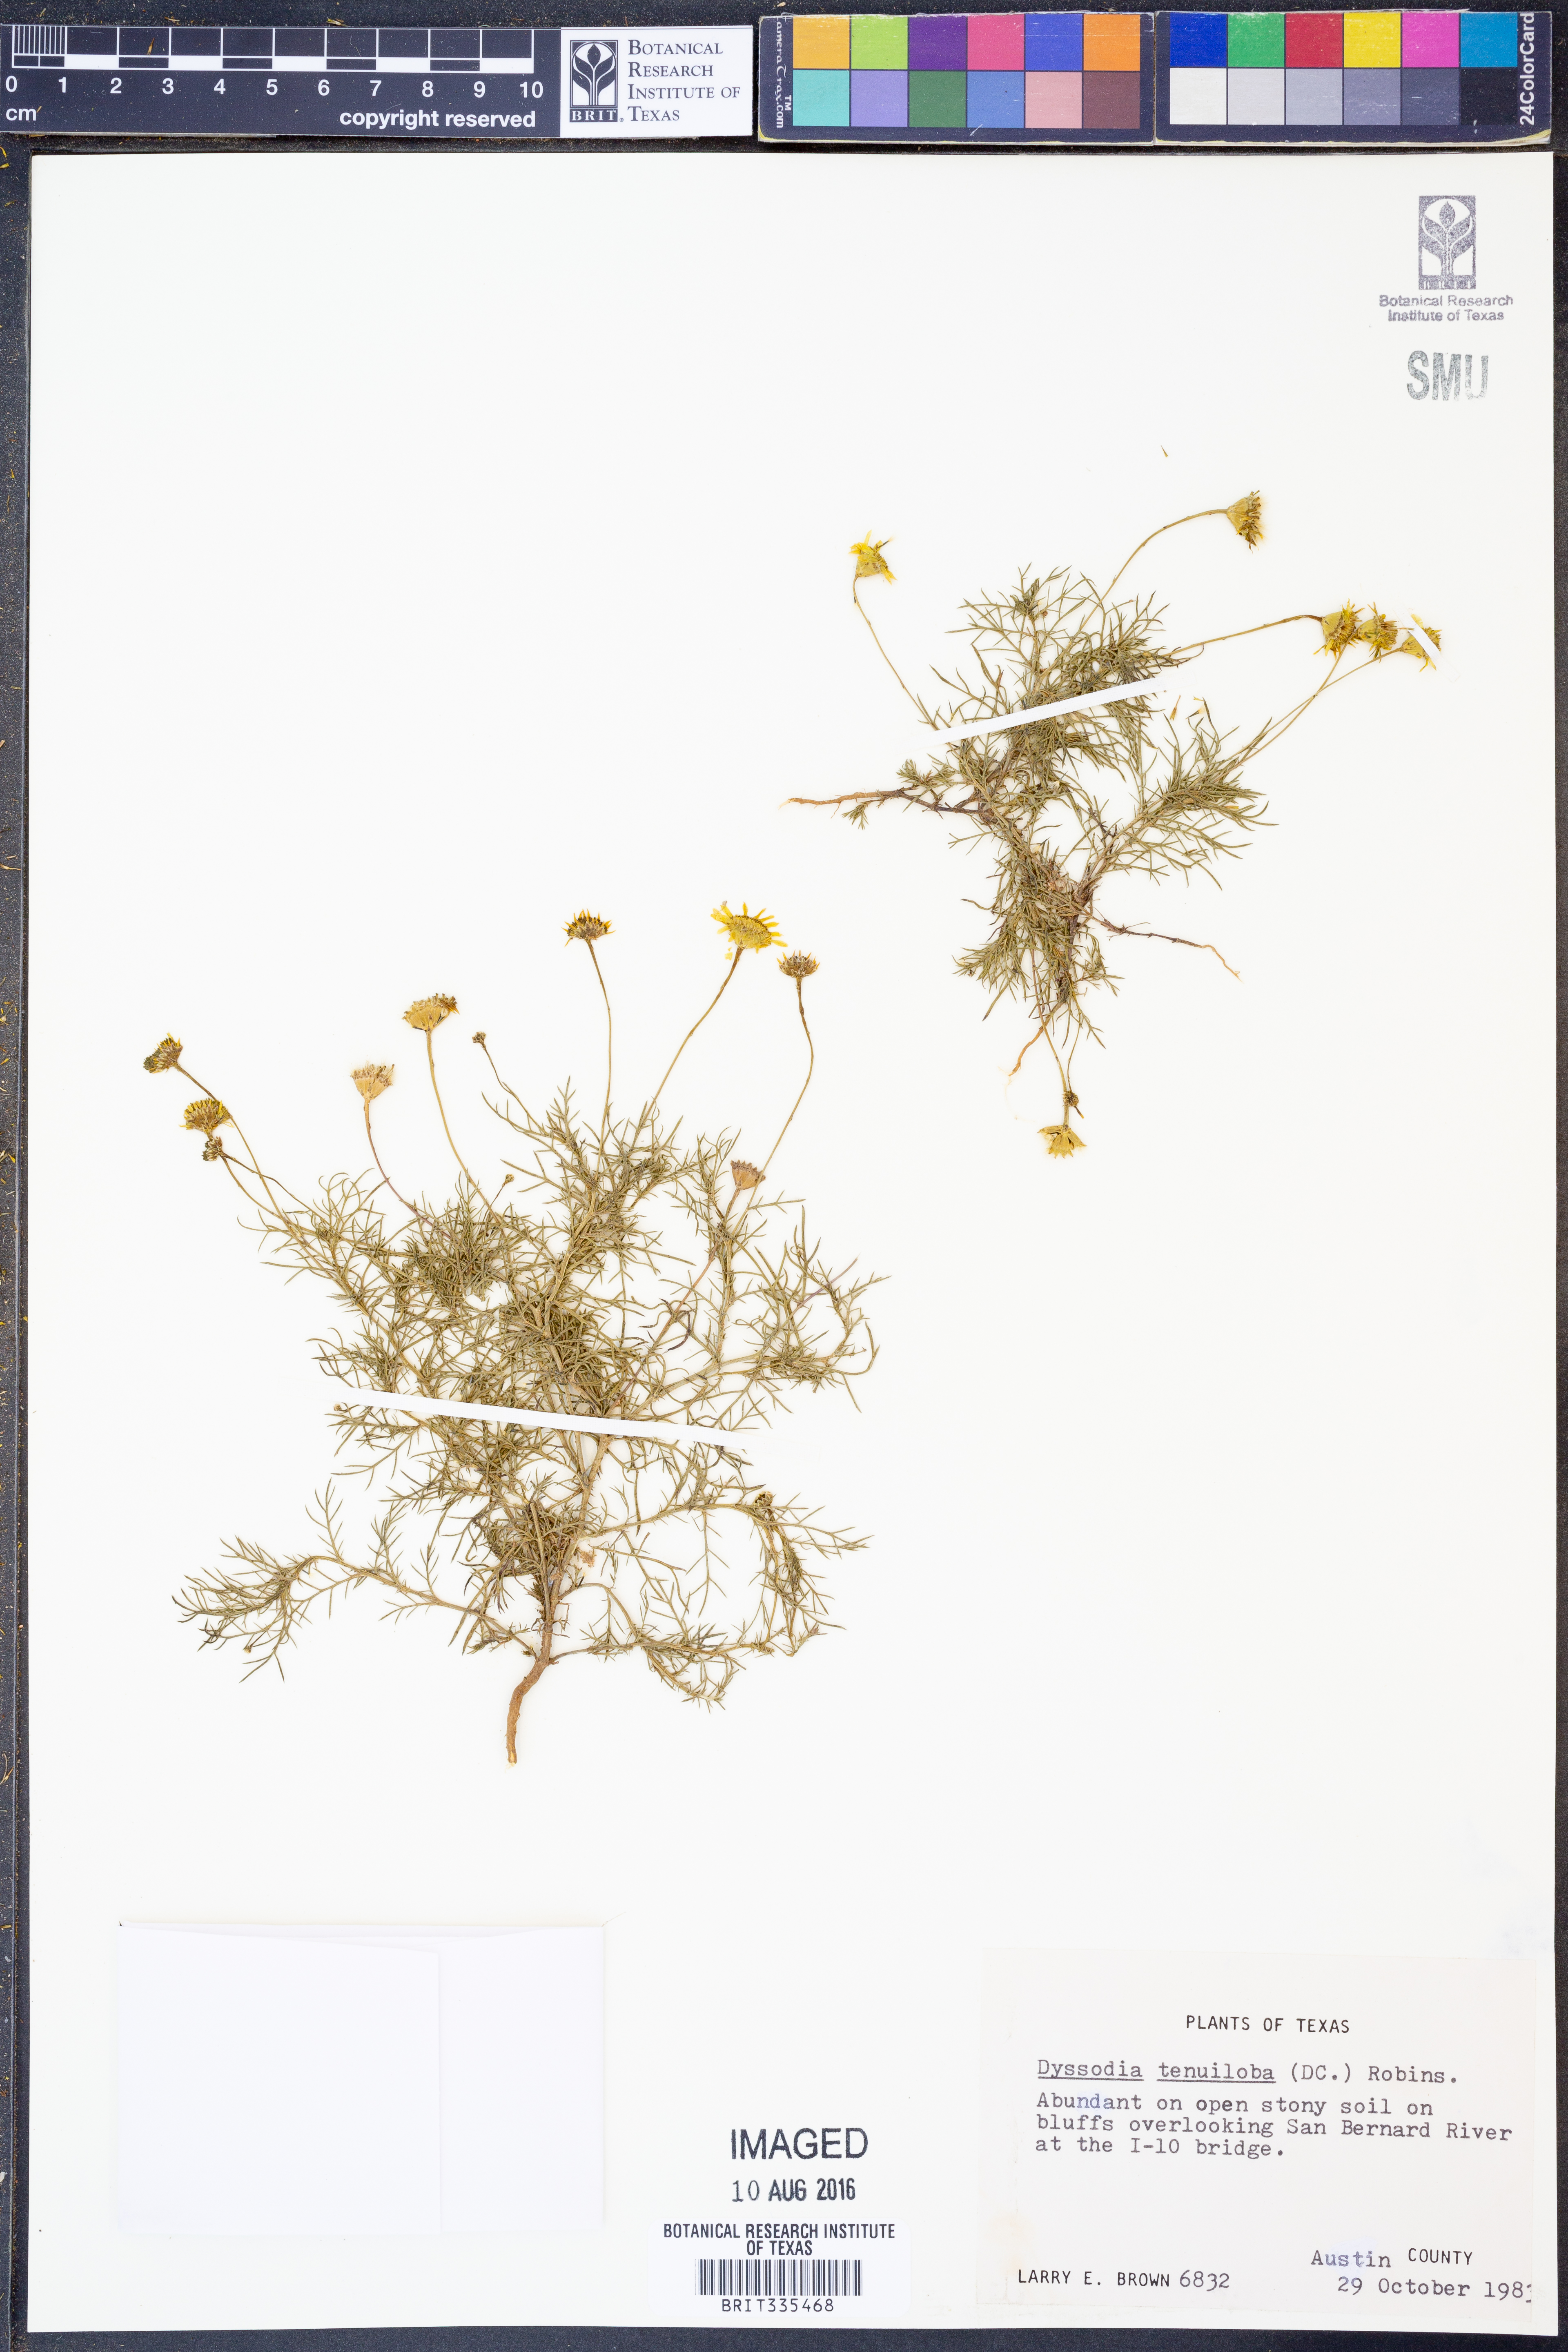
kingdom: Plantae
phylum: Tracheophyta
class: Magnoliopsida
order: Asterales
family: Asteraceae
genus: Thymophylla
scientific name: Thymophylla tenuiloba
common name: Dahlberg's daisy
